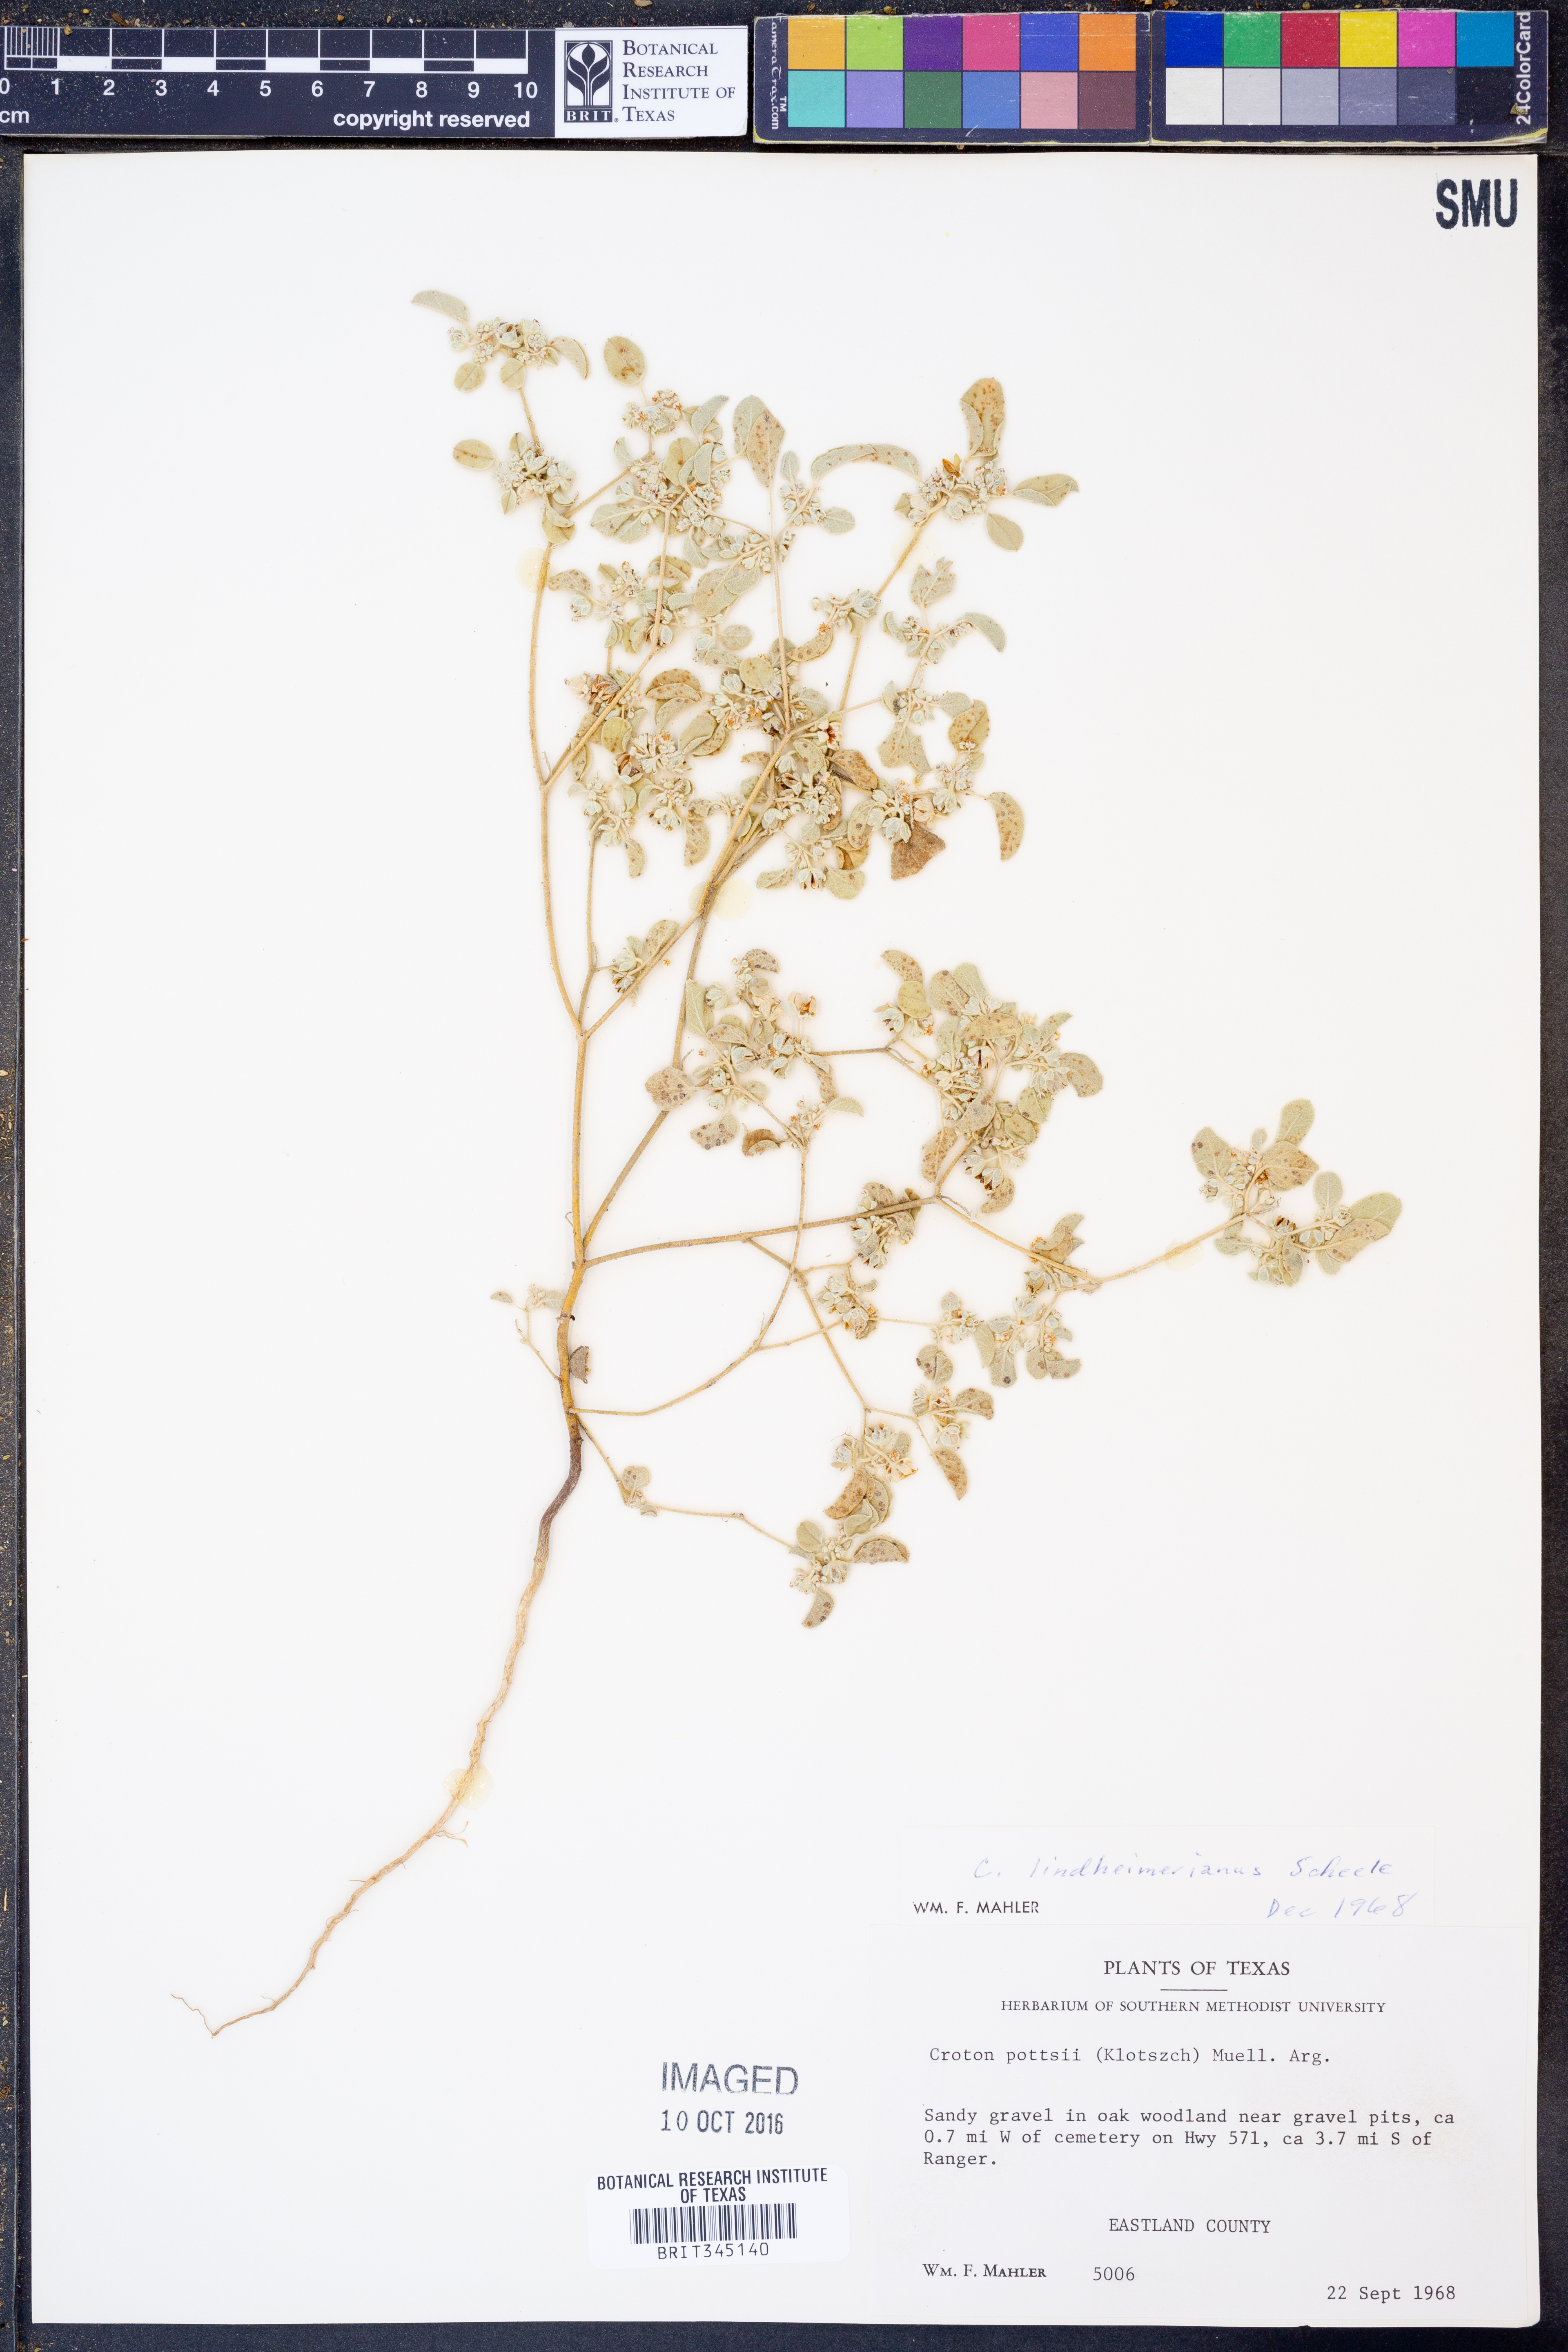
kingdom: Plantae
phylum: Tracheophyta
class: Magnoliopsida
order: Malpighiales
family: Euphorbiaceae
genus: Croton
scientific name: Croton lindheimerianus
